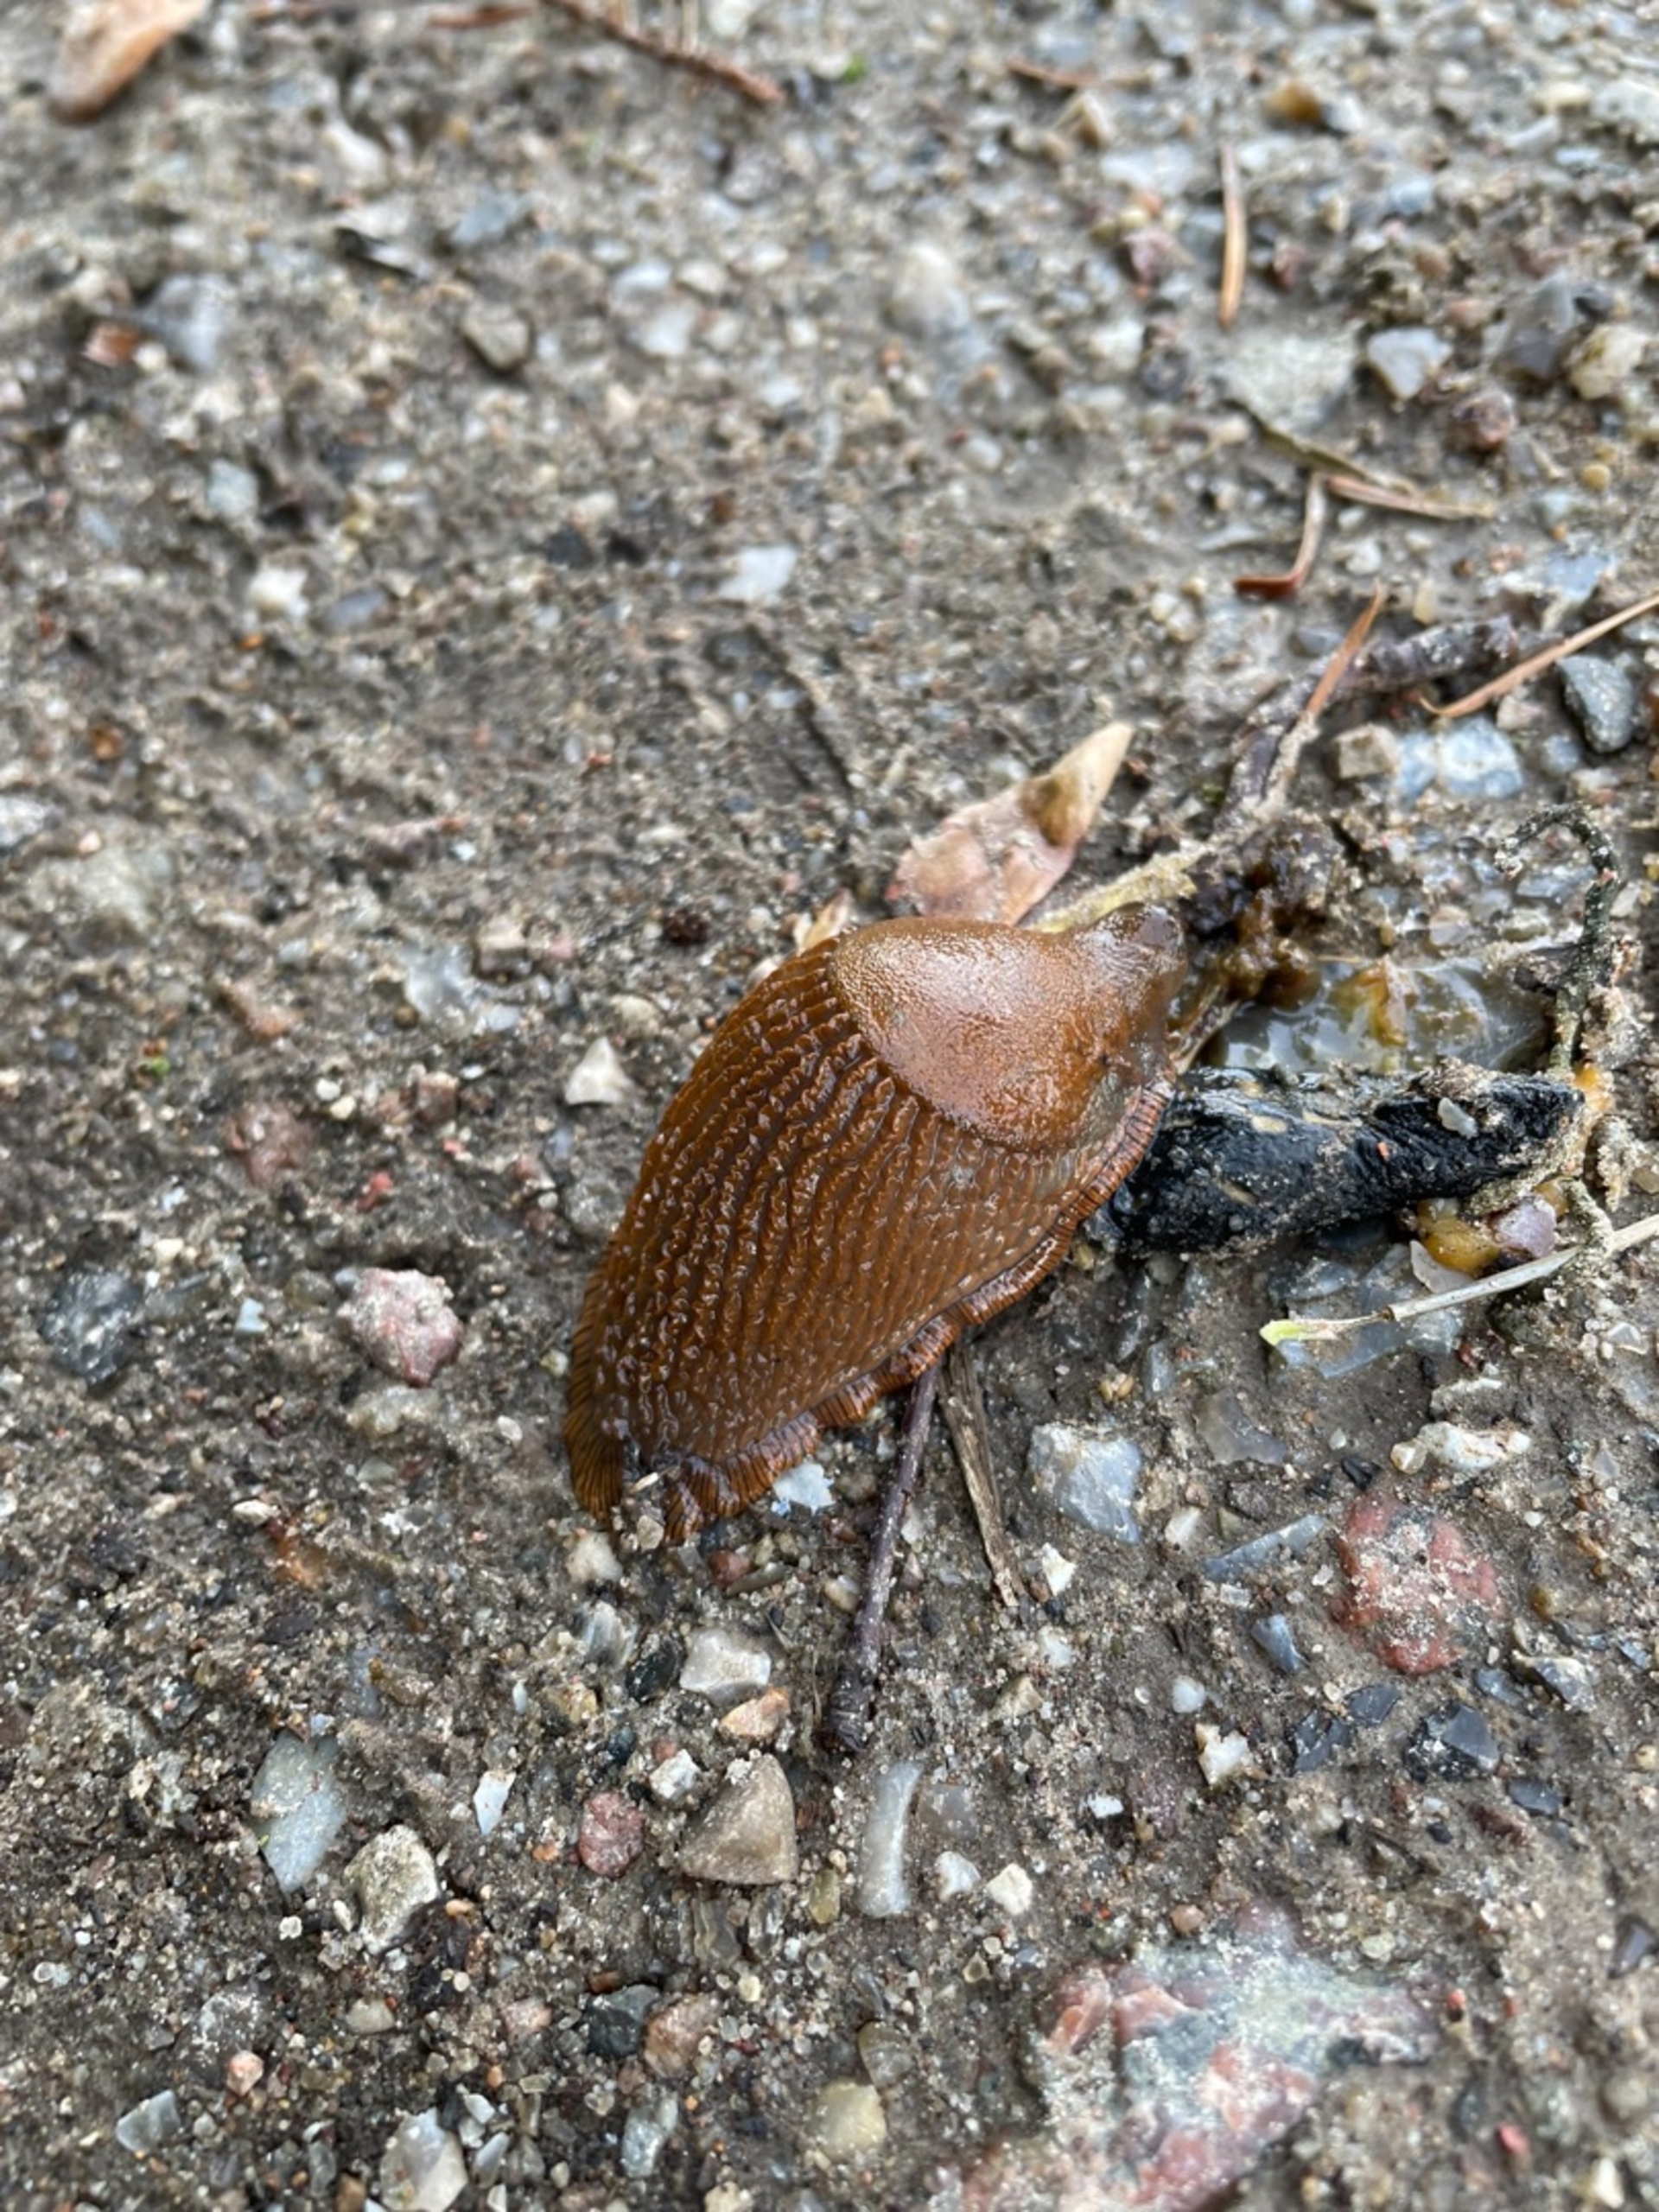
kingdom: Animalia
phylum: Mollusca
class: Gastropoda
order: Stylommatophora
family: Arionidae
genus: Arion
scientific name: Arion vulgaris
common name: Iberisk skovsnegl
